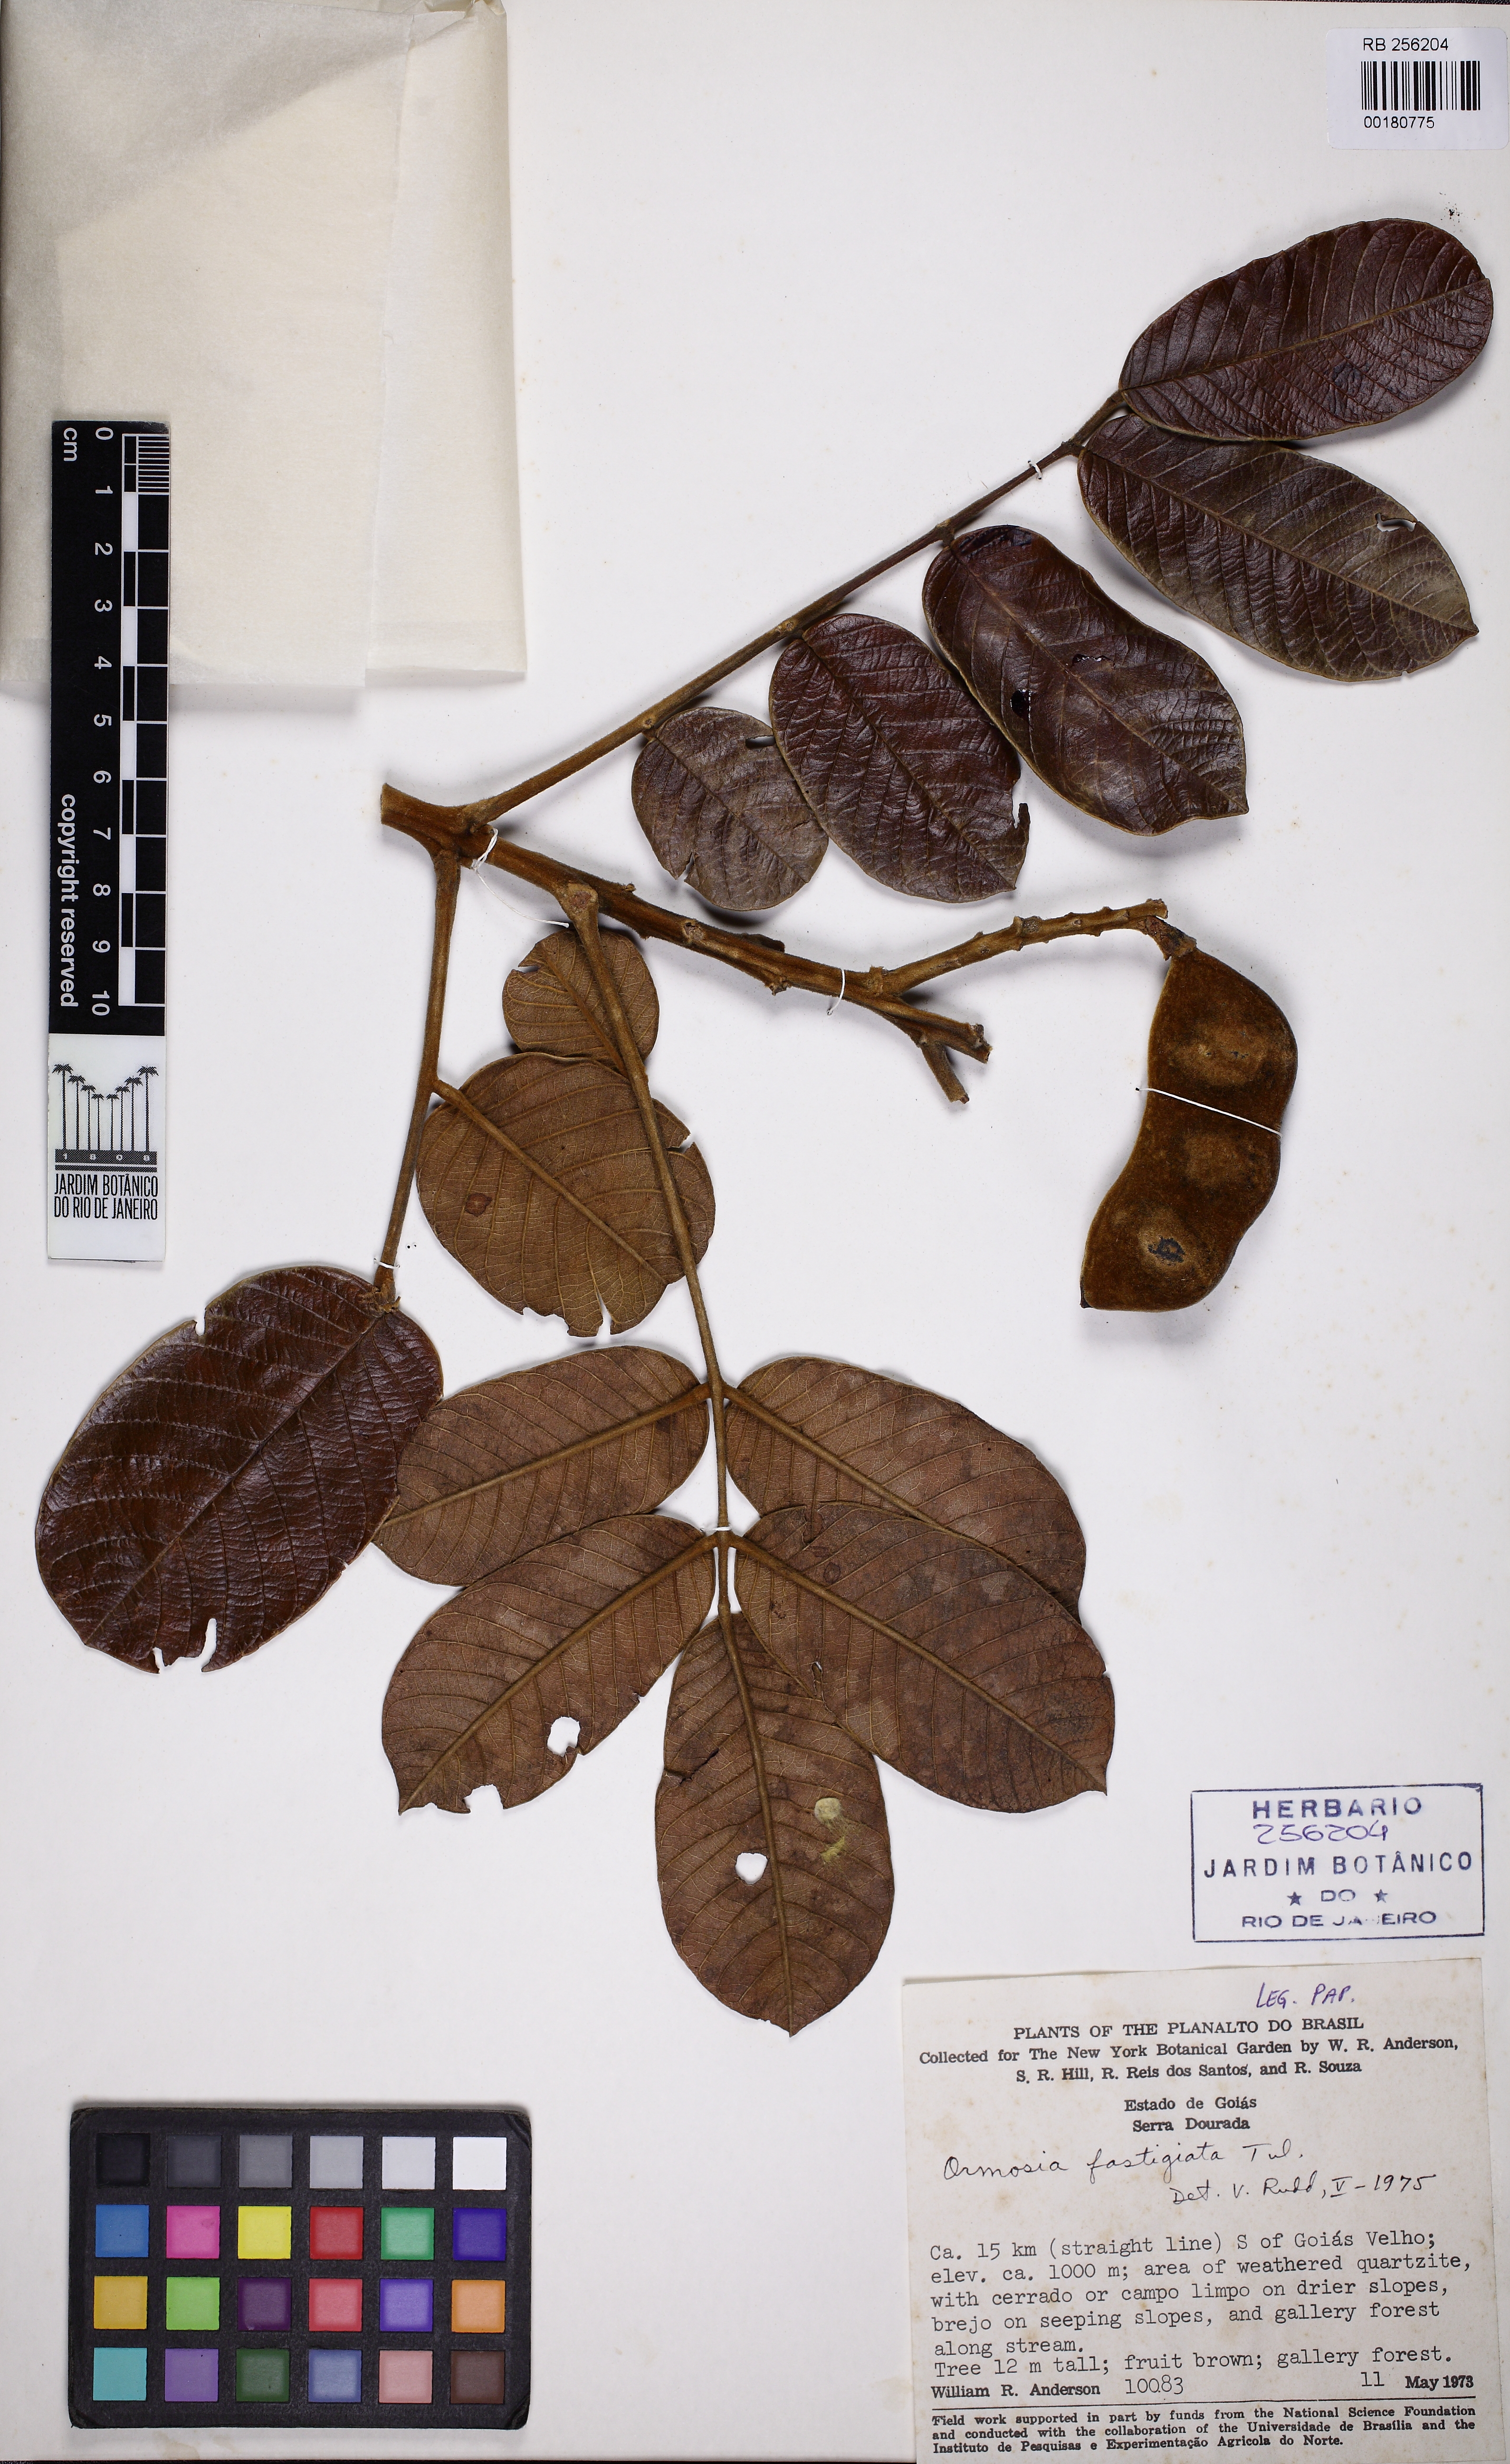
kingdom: Plantae
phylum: Tracheophyta
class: Magnoliopsida
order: Fabales
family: Fabaceae
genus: Ormosia
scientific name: Ormosia fastigiata
